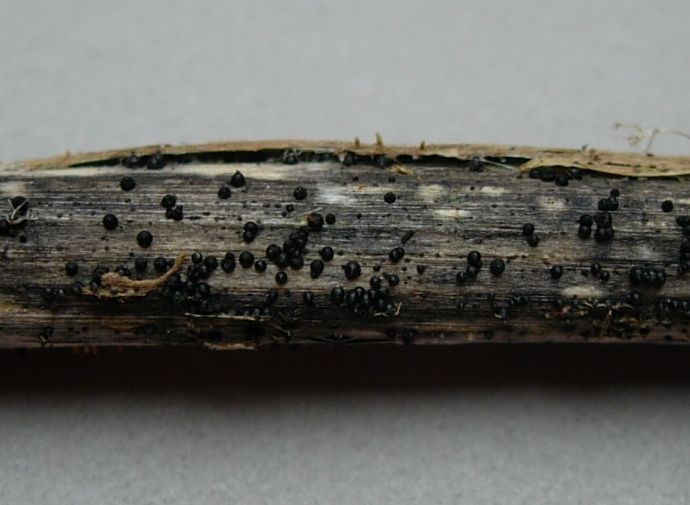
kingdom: Fungi
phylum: Ascomycota
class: Dothideomycetes
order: Pleosporales
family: Leptosphaeriaceae
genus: Leptosphaeria
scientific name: Leptosphaeria acuta
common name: spids kulkegle
